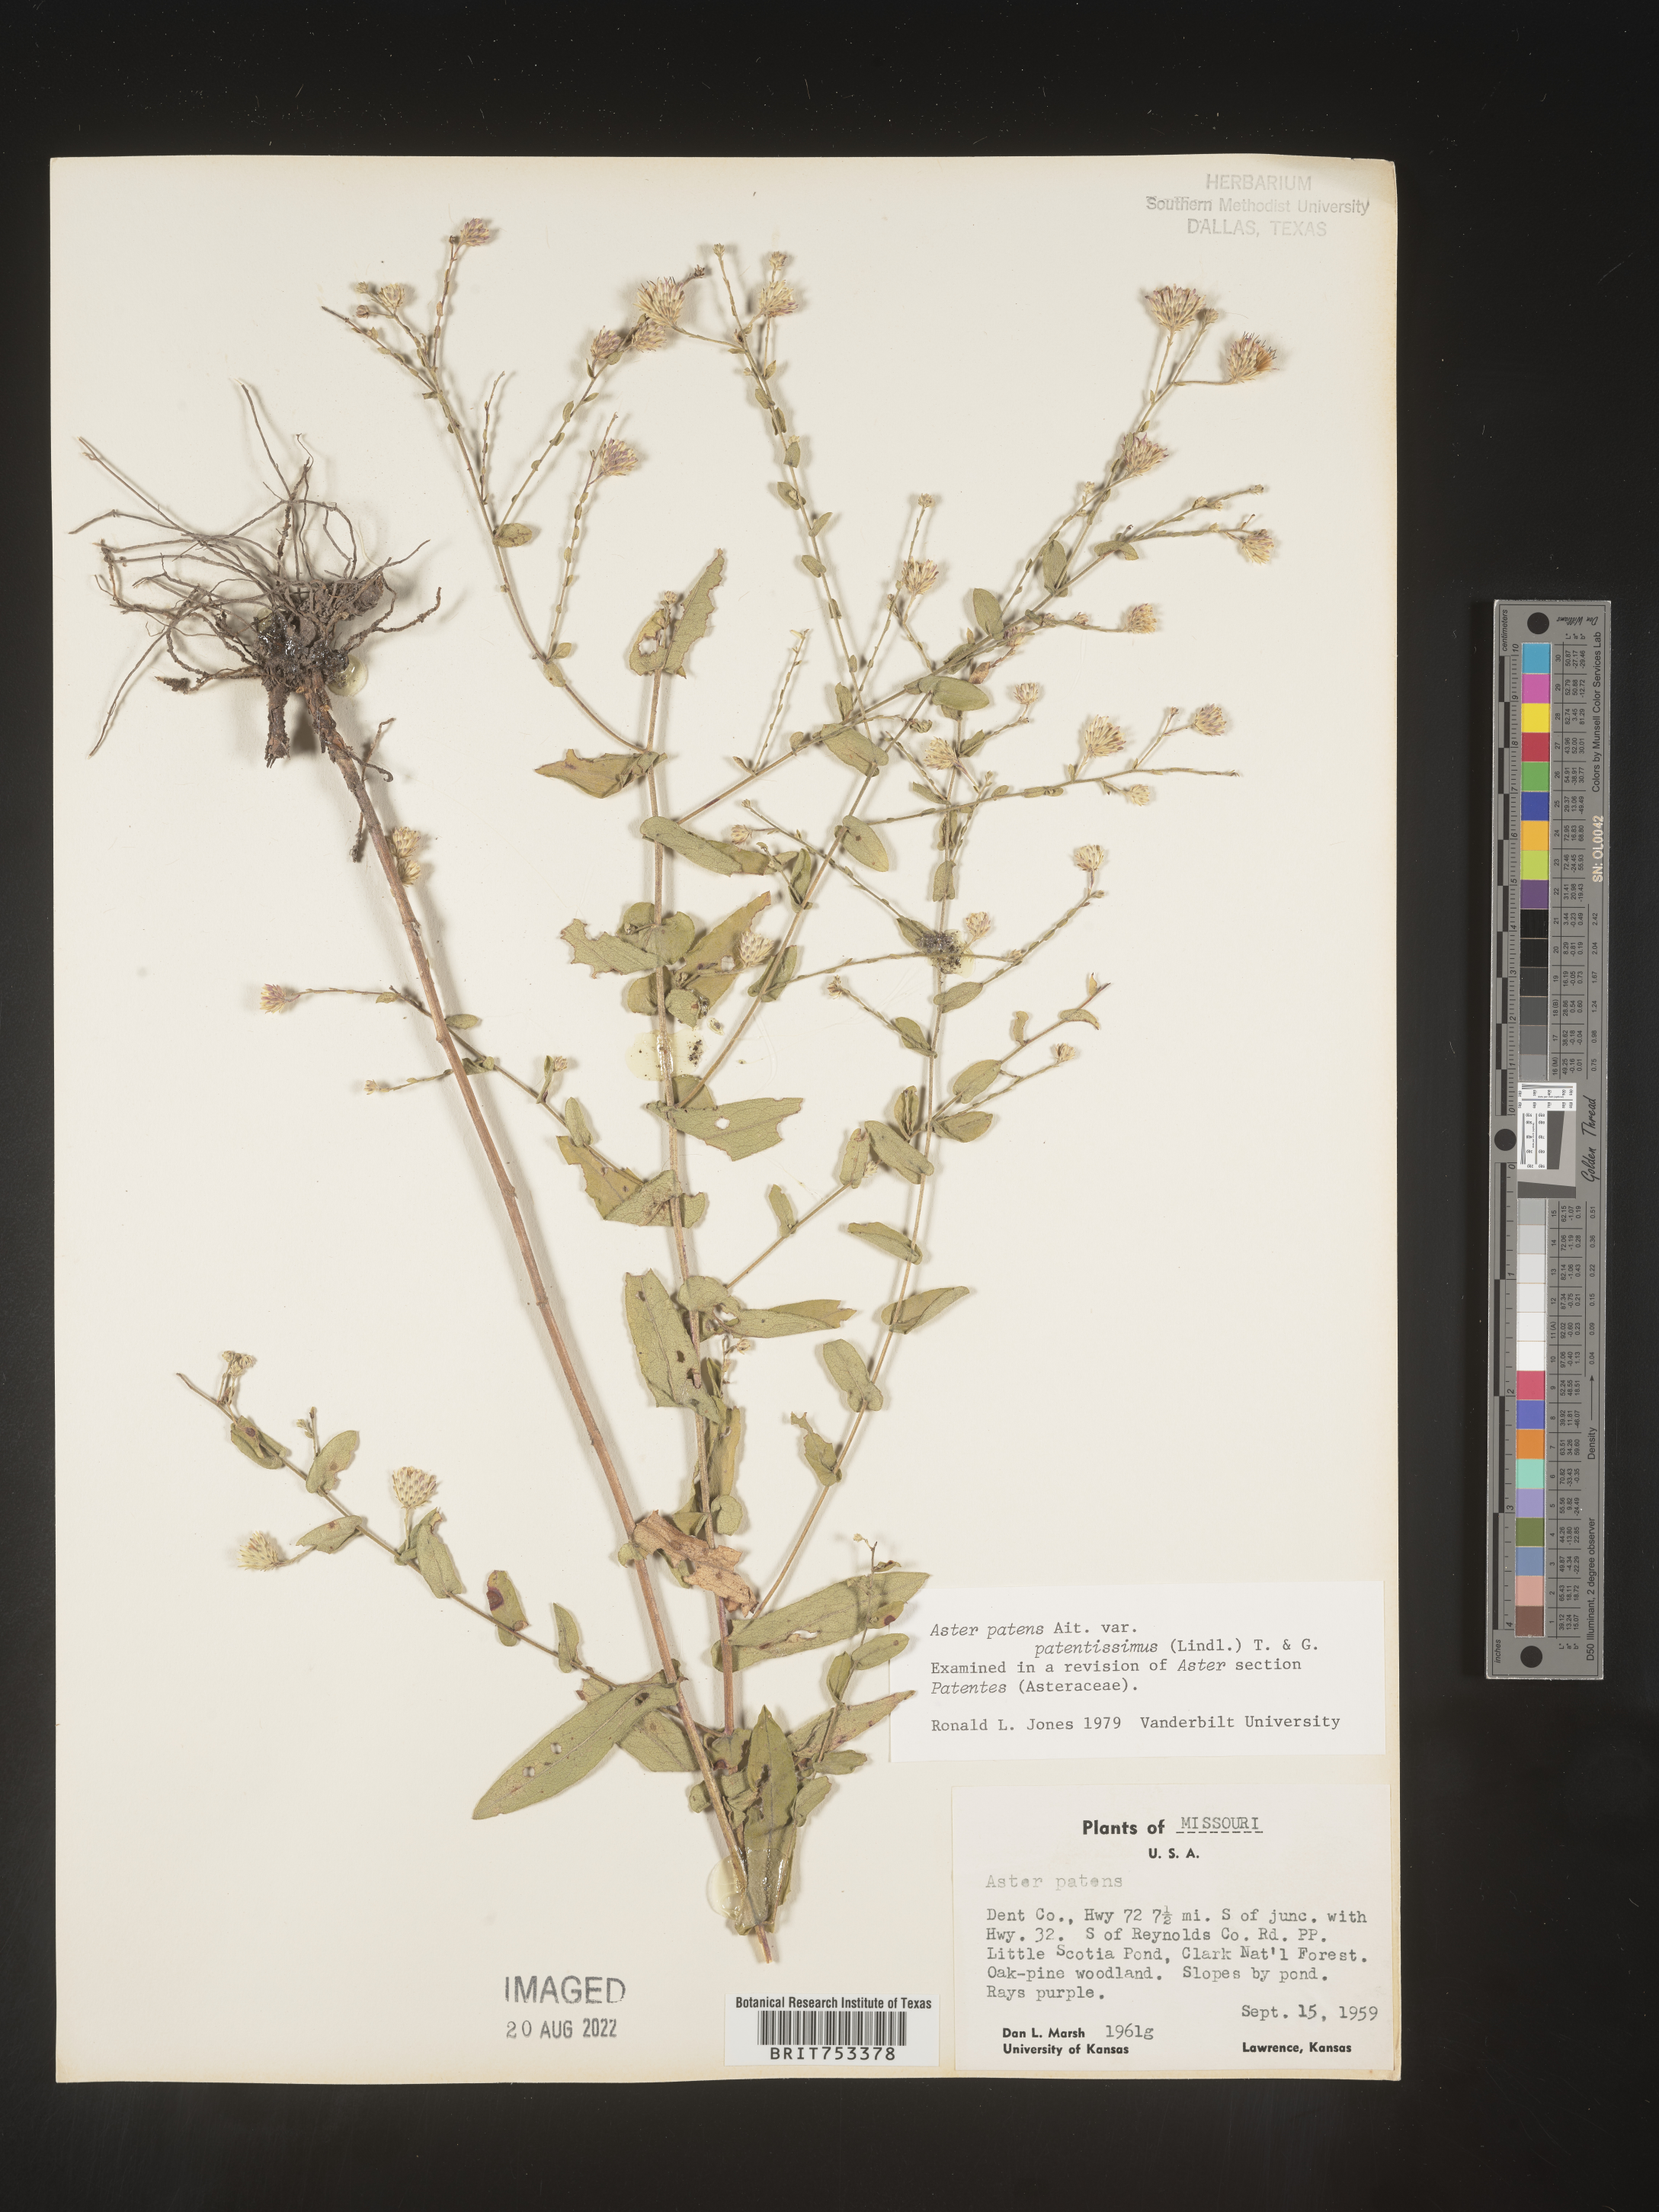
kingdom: Plantae
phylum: Tracheophyta
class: Magnoliopsida
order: Asterales
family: Asteraceae
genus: Symphyotrichum
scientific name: Symphyotrichum patens
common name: Late purple aster
